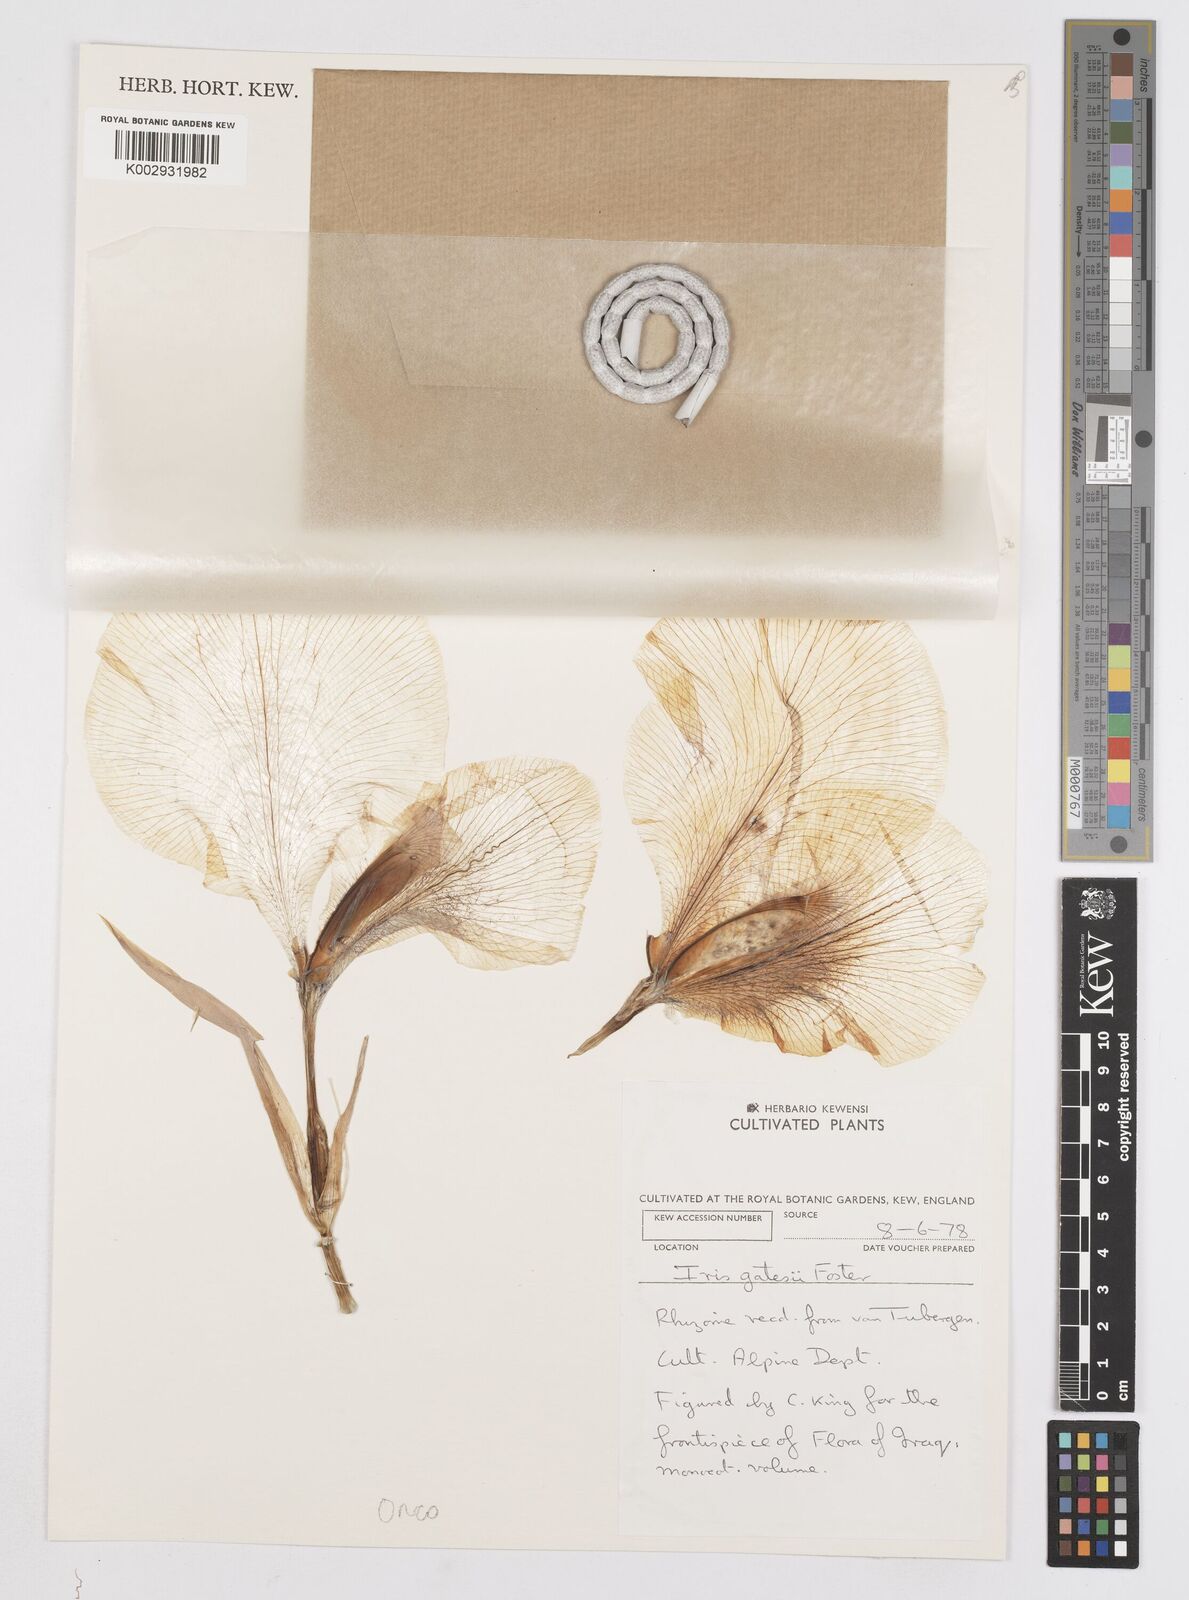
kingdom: Plantae
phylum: Tracheophyta
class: Liliopsida
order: Asparagales
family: Iridaceae
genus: Iris
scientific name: Iris gatesii
